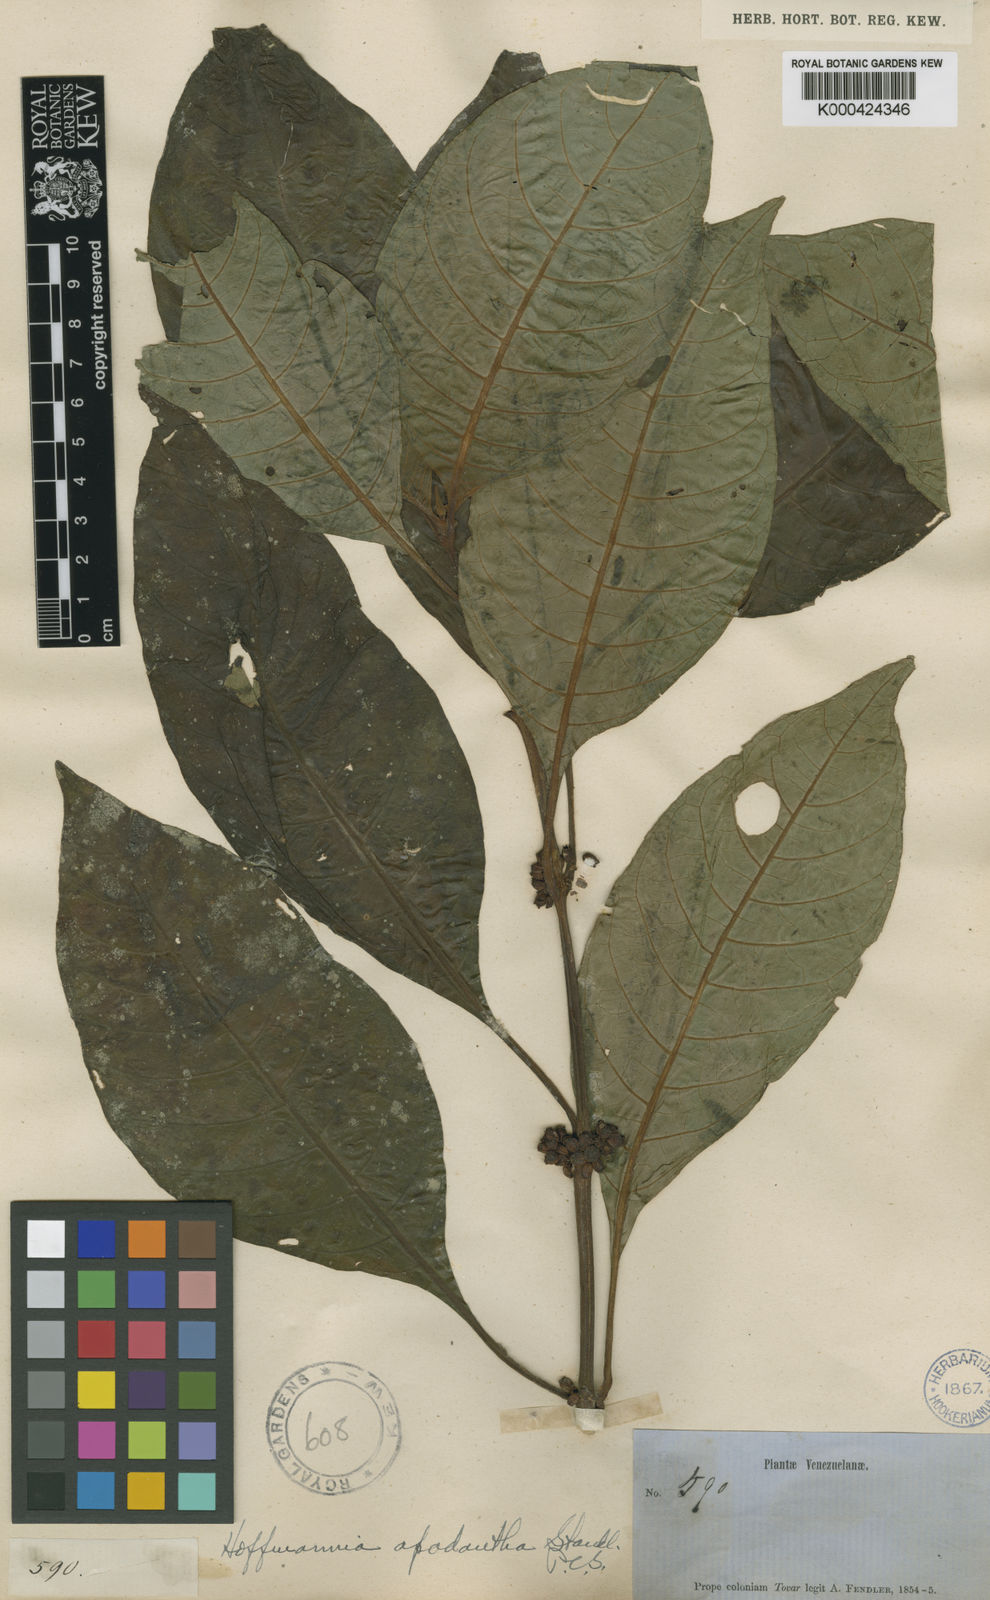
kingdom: Plantae
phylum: Tracheophyta
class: Magnoliopsida
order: Gentianales
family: Rubiaceae
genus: Hoffmannia
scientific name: Hoffmannia apodantha
